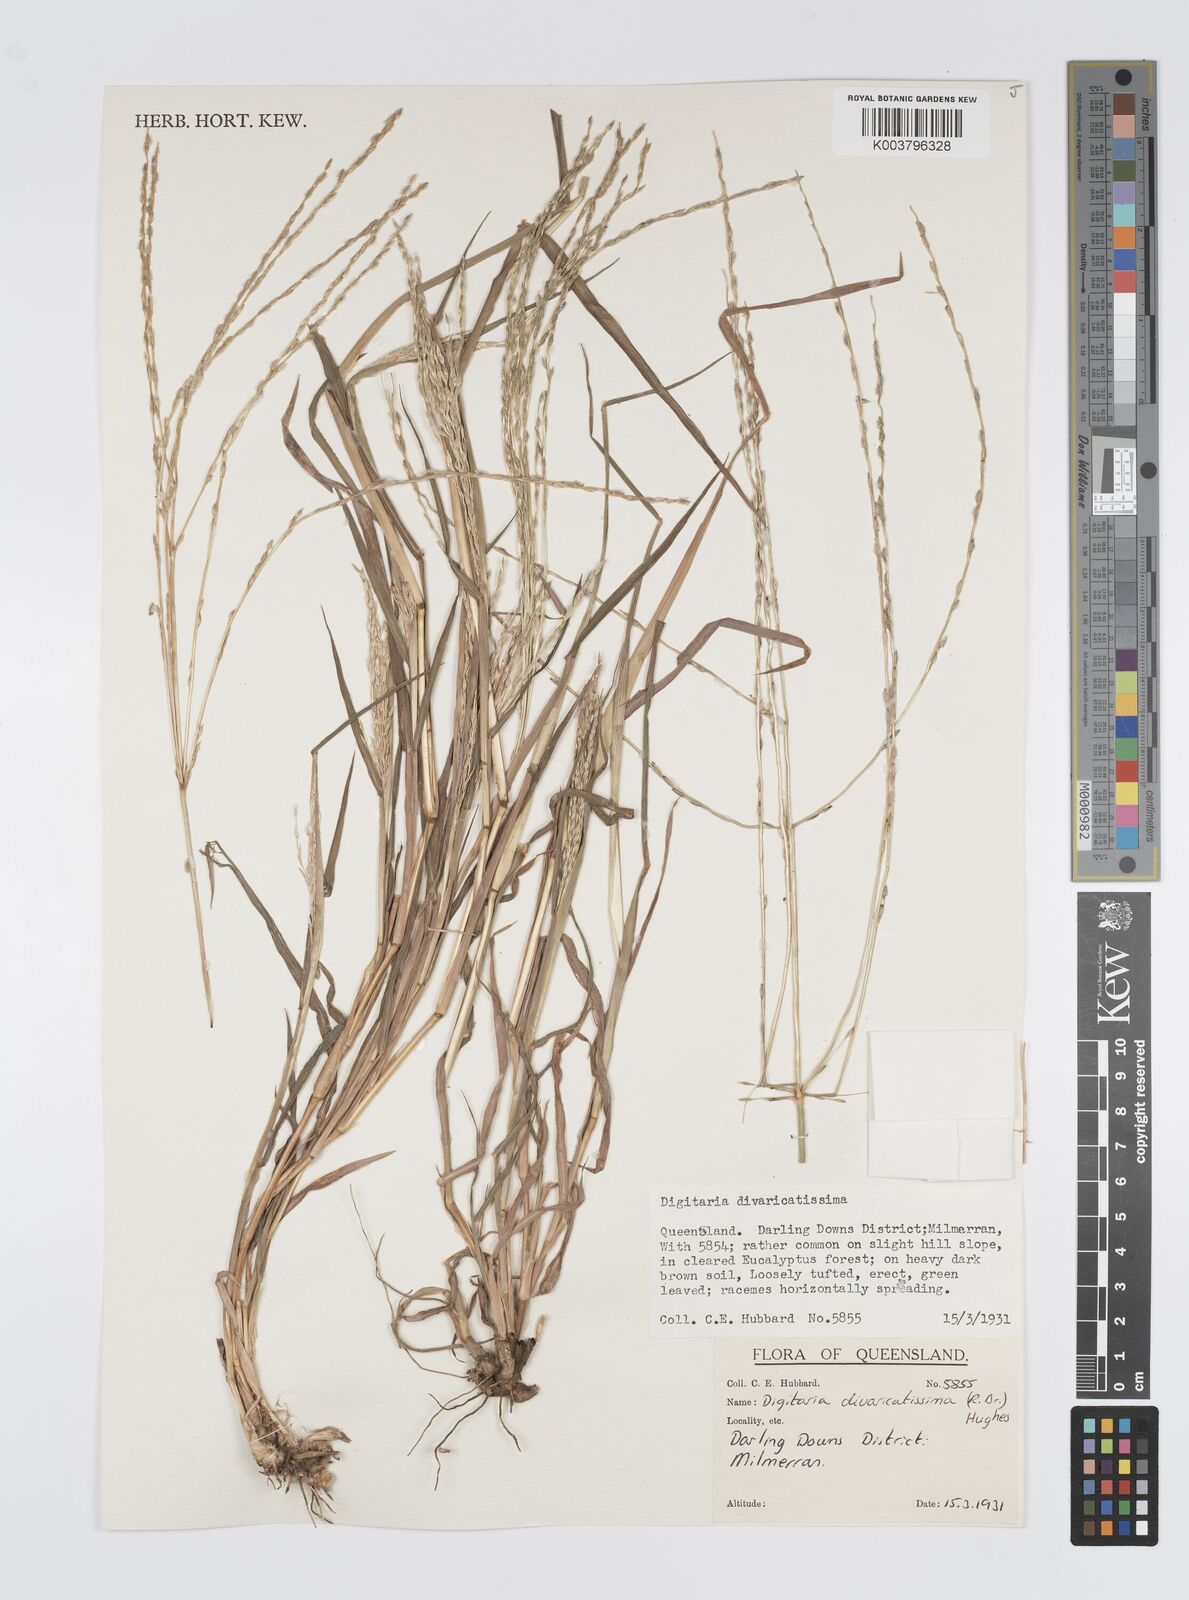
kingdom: Plantae
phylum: Tracheophyta
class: Liliopsida
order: Poales
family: Poaceae
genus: Digitaria
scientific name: Digitaria spec
